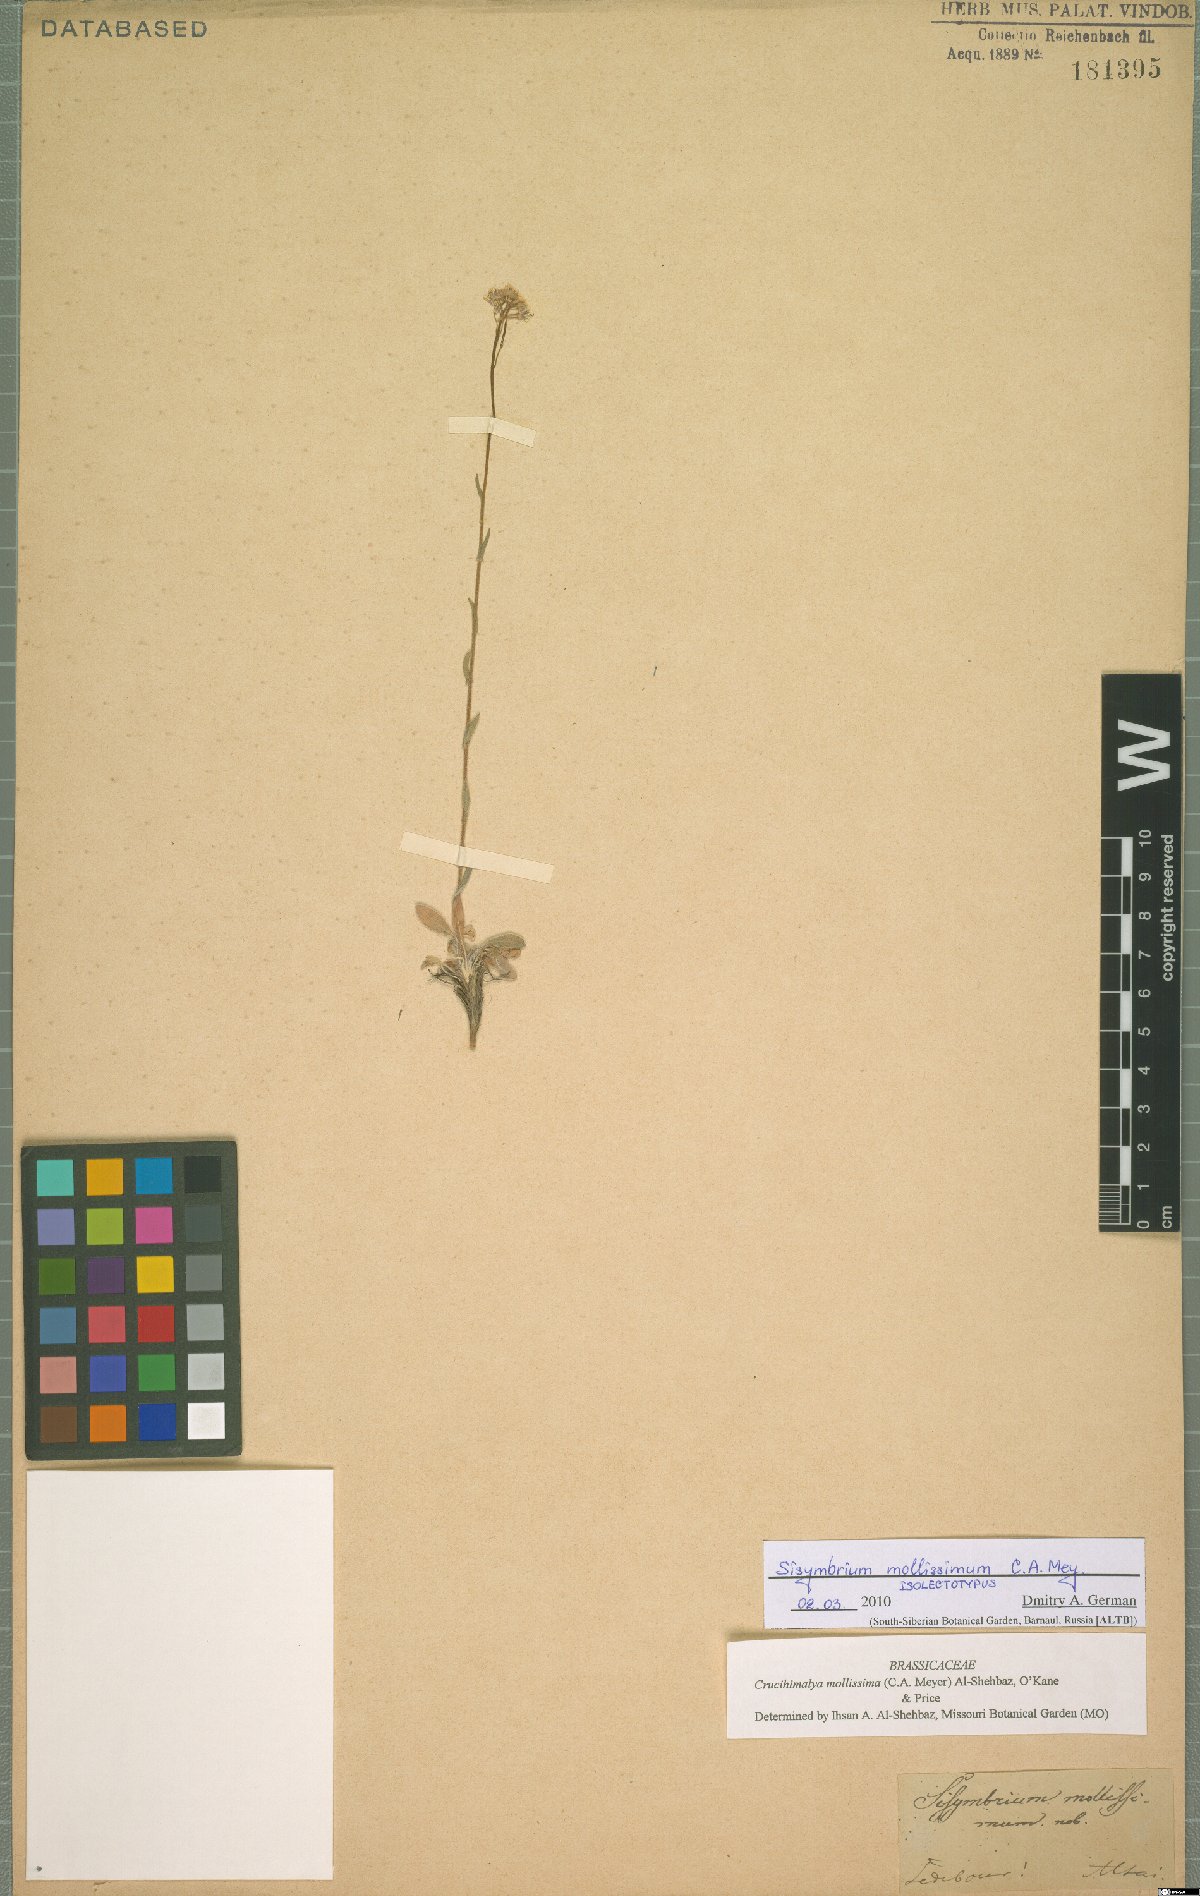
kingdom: Plantae
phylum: Tracheophyta
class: Magnoliopsida
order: Brassicales
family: Brassicaceae
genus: Crucihimalaya
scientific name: Crucihimalaya mollissima
